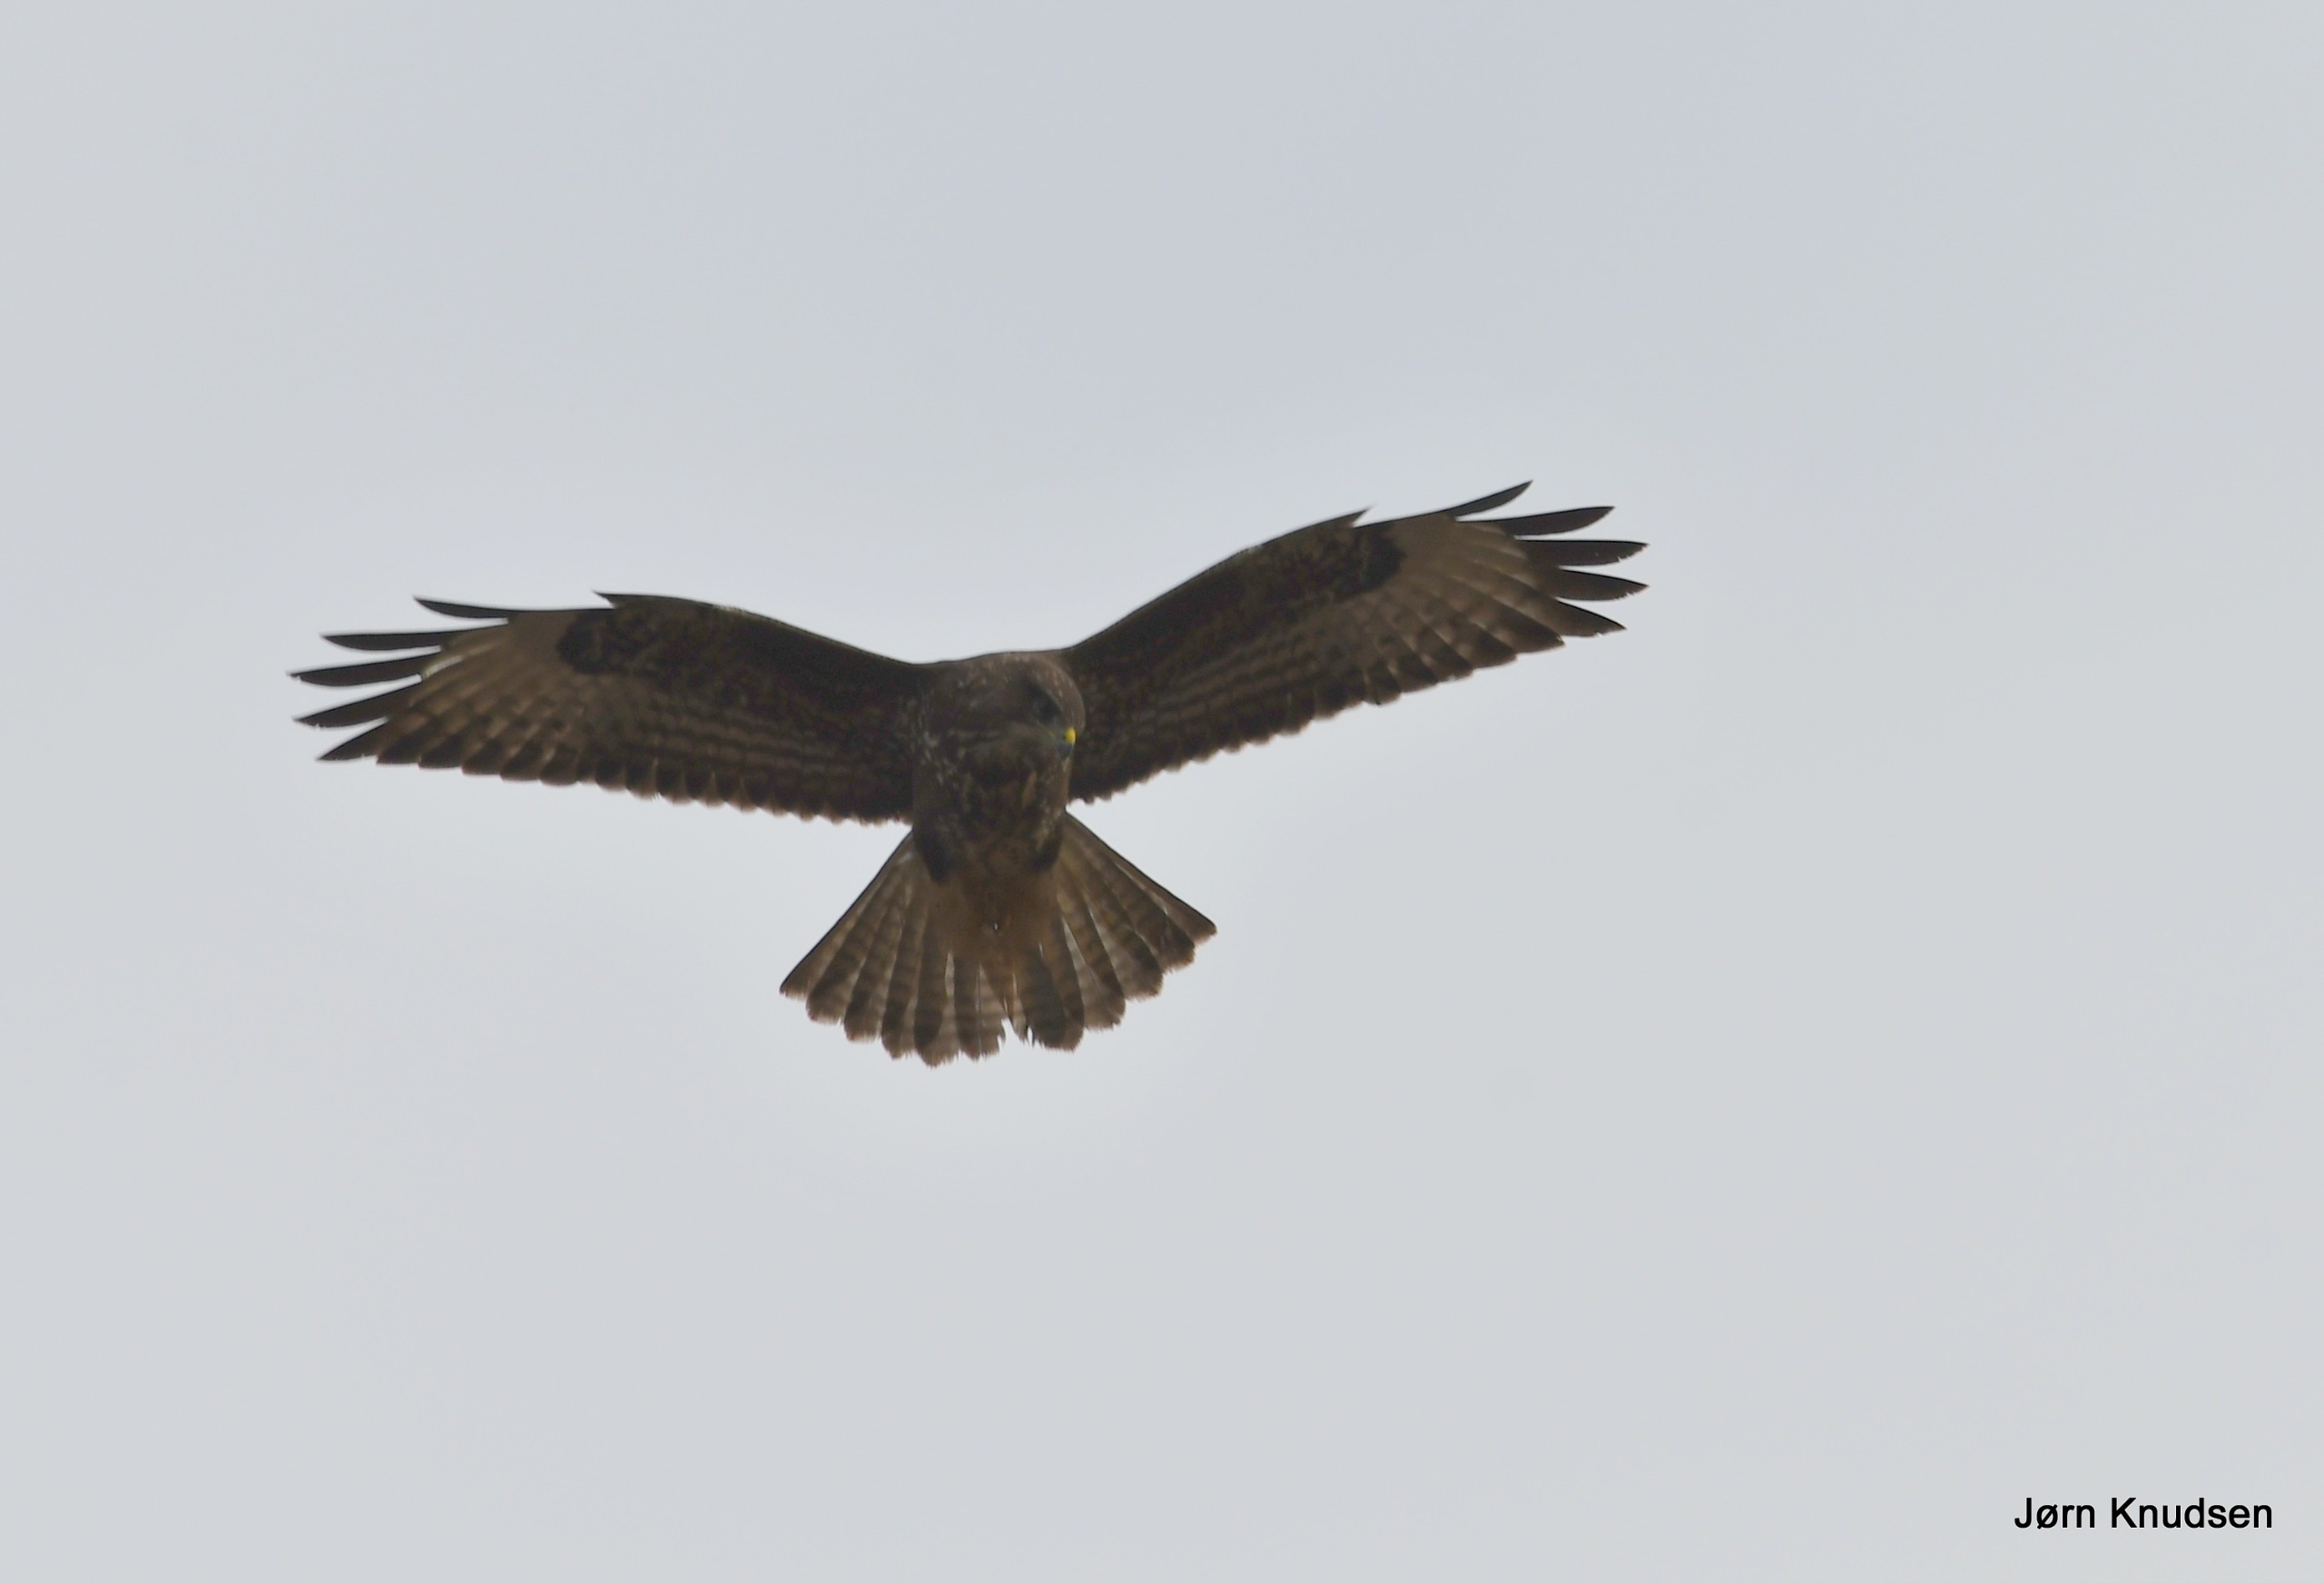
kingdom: Animalia
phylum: Chordata
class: Aves
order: Accipitriformes
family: Accipitridae
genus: Buteo
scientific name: Buteo buteo
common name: Musvåge
